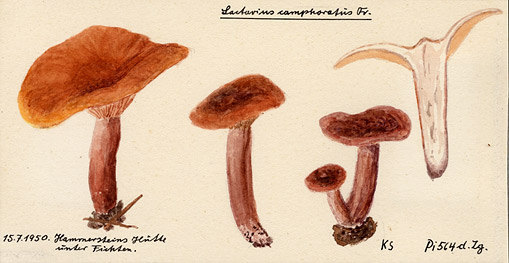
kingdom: Fungi
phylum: Basidiomycota
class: Agaricomycetes
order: Russulales
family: Russulaceae
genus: Lactarius
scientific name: Lactarius camphoratus
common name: Curry milkcap
